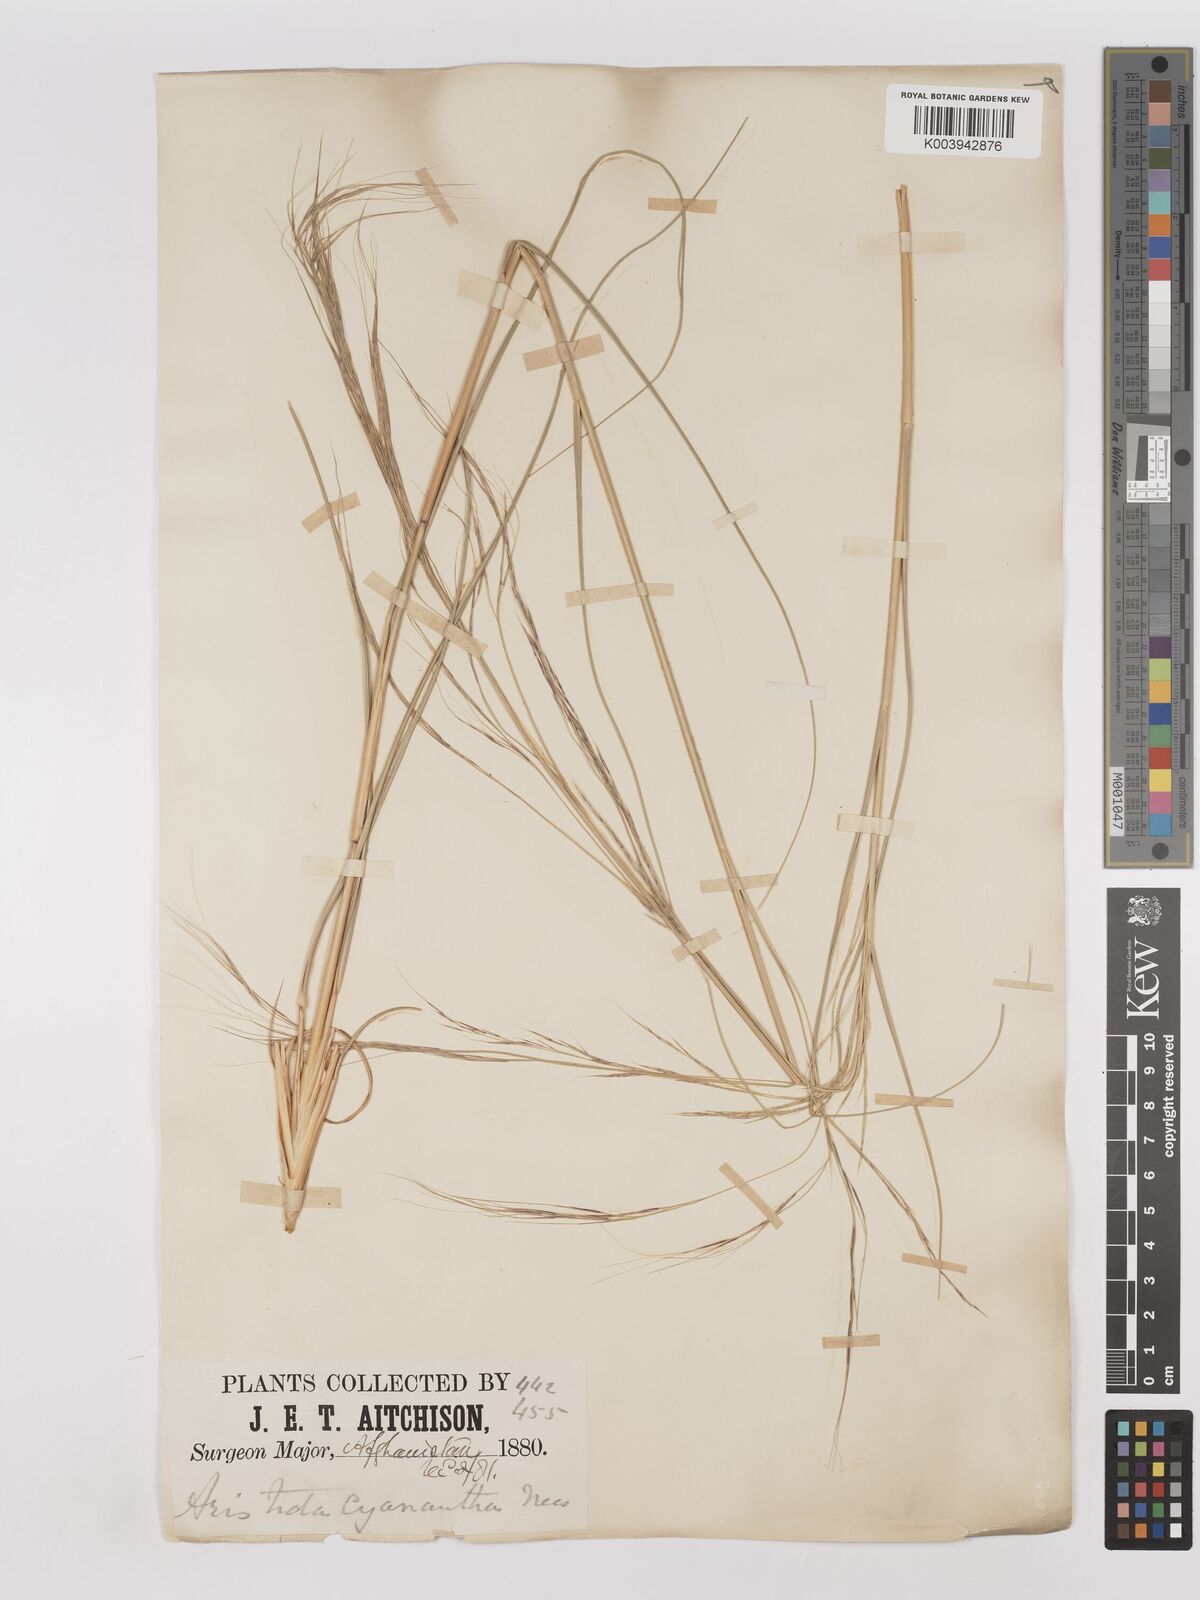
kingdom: Plantae
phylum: Tracheophyta
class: Liliopsida
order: Poales
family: Poaceae
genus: Aristida
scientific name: Aristida cyanantha
